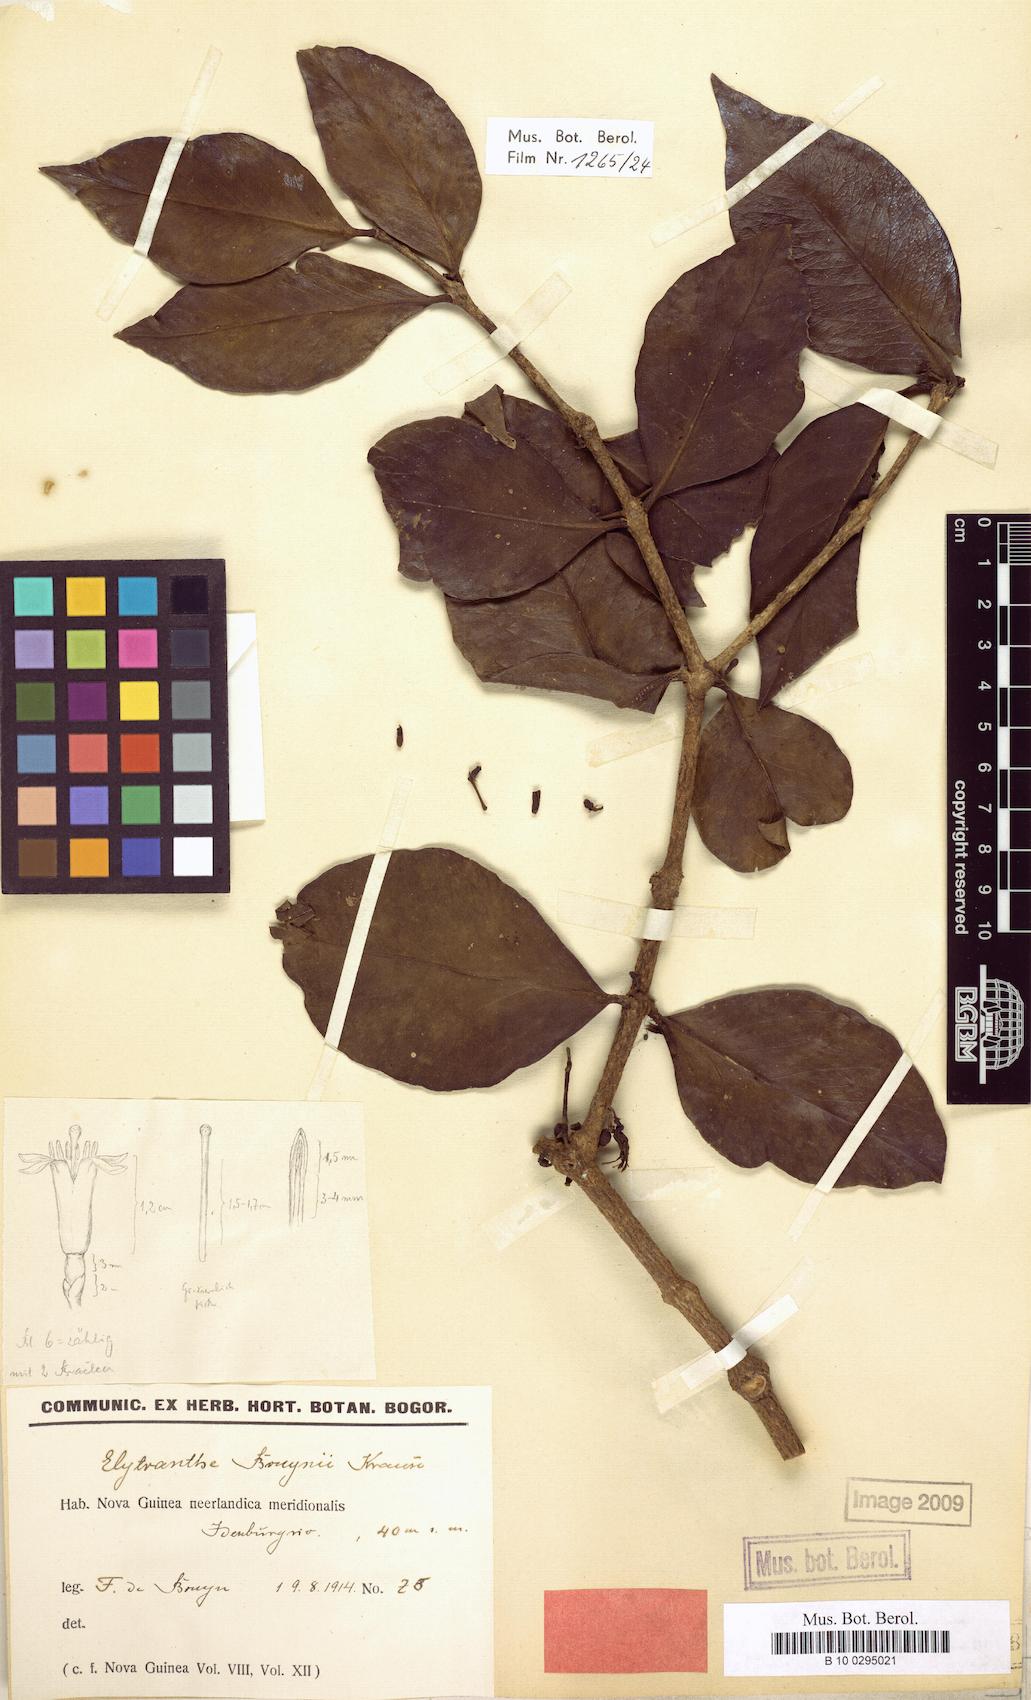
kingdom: Plantae
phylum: Tracheophyta
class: Magnoliopsida
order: Santalales
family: Loranthaceae
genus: Macrosolen
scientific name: Macrosolen cochinchinensis
